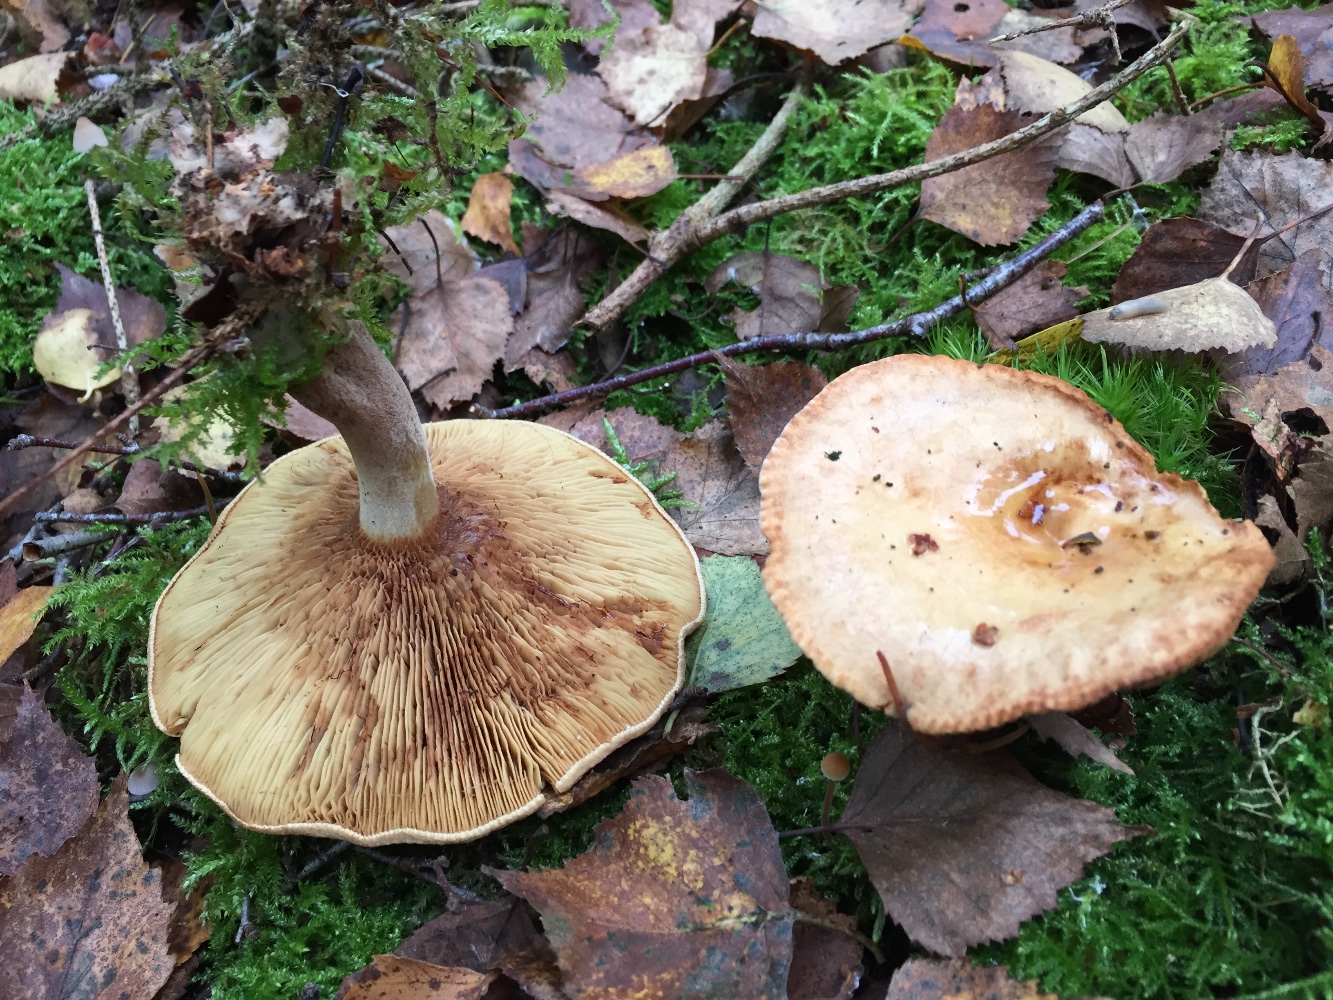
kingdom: Fungi
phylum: Basidiomycota
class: Agaricomycetes
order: Boletales
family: Paxillaceae
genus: Paxillus
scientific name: Paxillus involutus
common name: almindelig netbladhat
